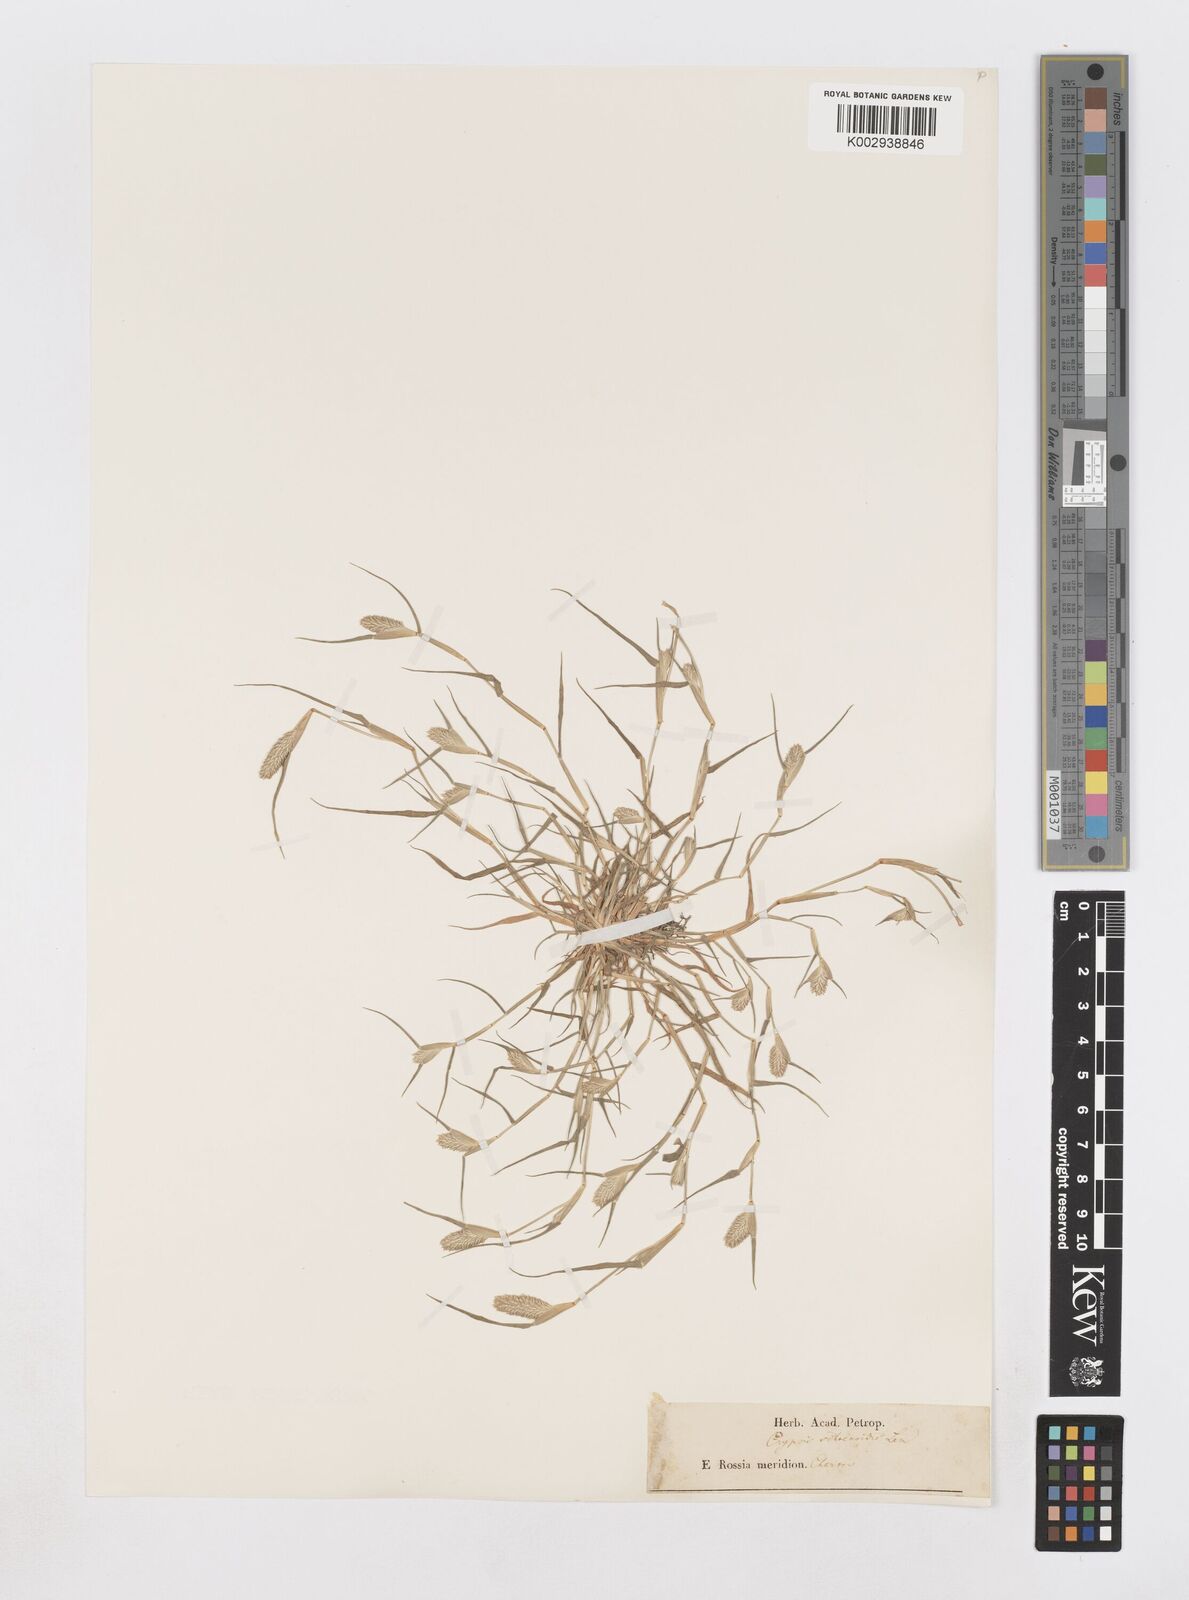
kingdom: Plantae
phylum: Tracheophyta
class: Liliopsida
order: Poales
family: Poaceae
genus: Sporobolus
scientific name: Sporobolus schoenoides
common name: Rush-like timothy
